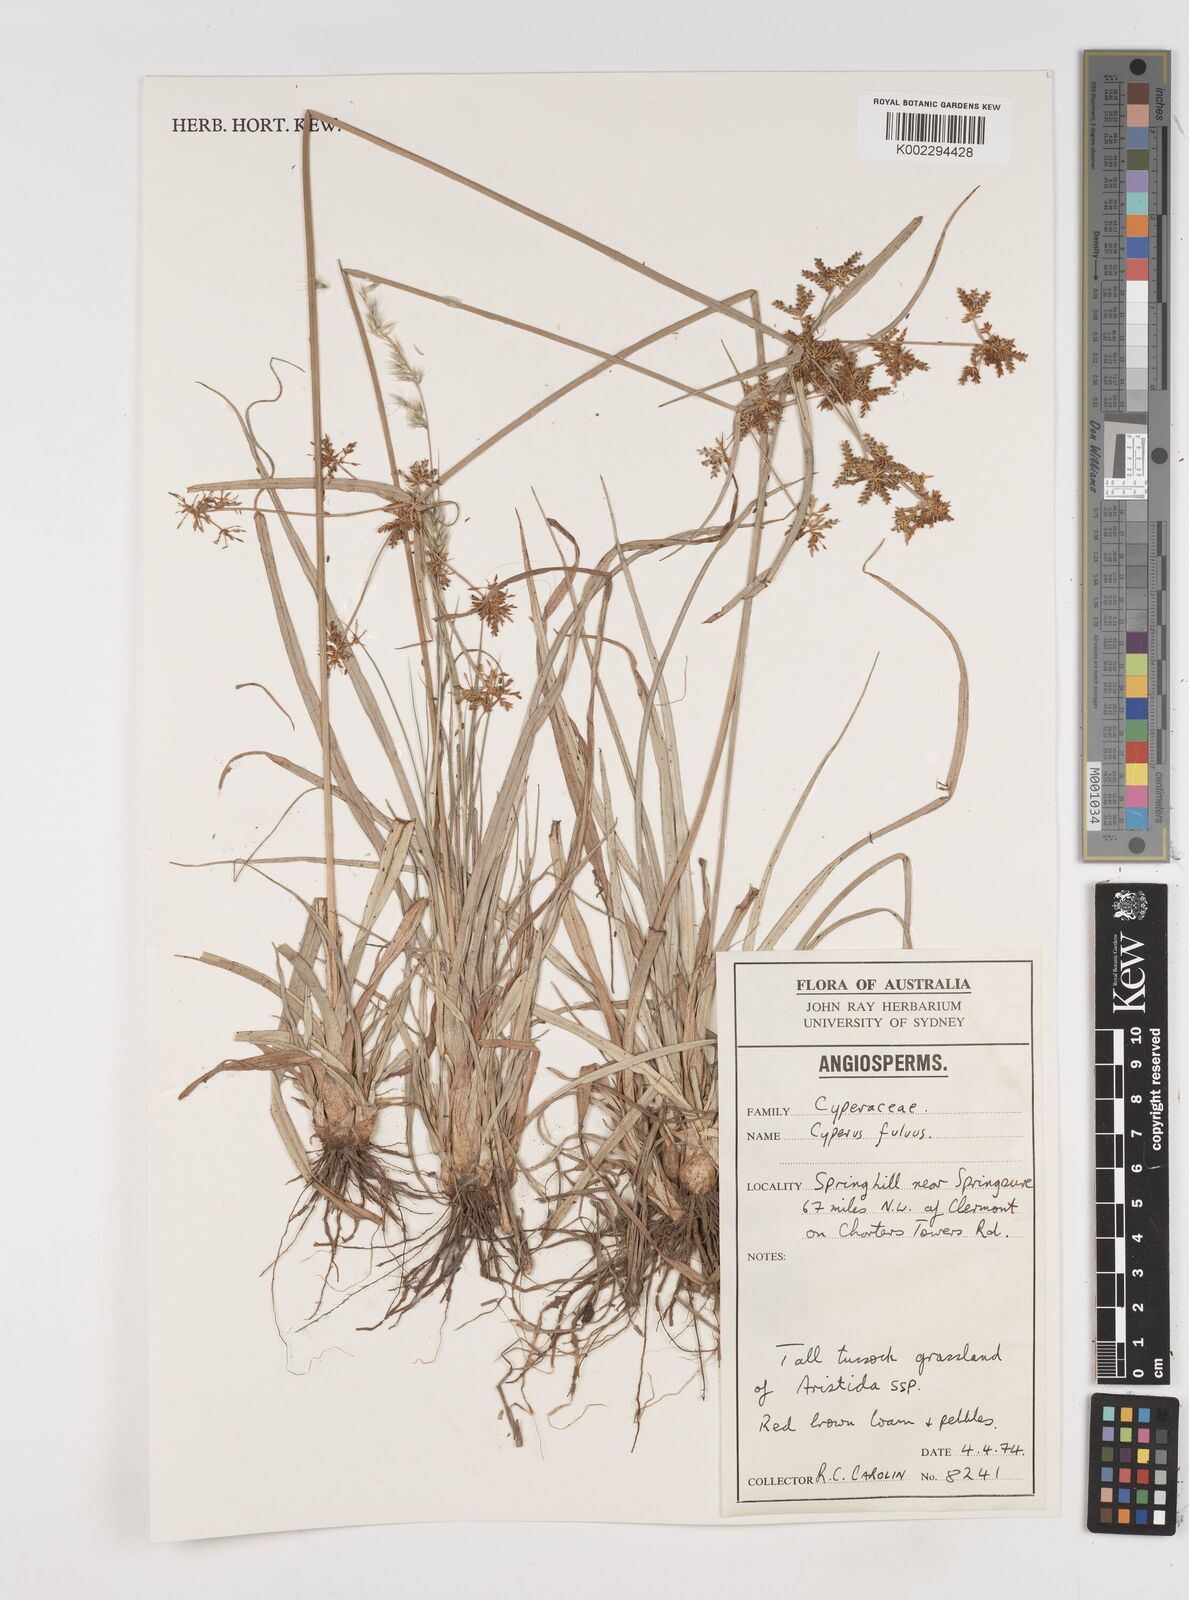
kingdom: Plantae
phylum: Tracheophyta
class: Liliopsida
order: Poales
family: Cyperaceae
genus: Cyperus
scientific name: Cyperus fulvus
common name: Sticky sedge
